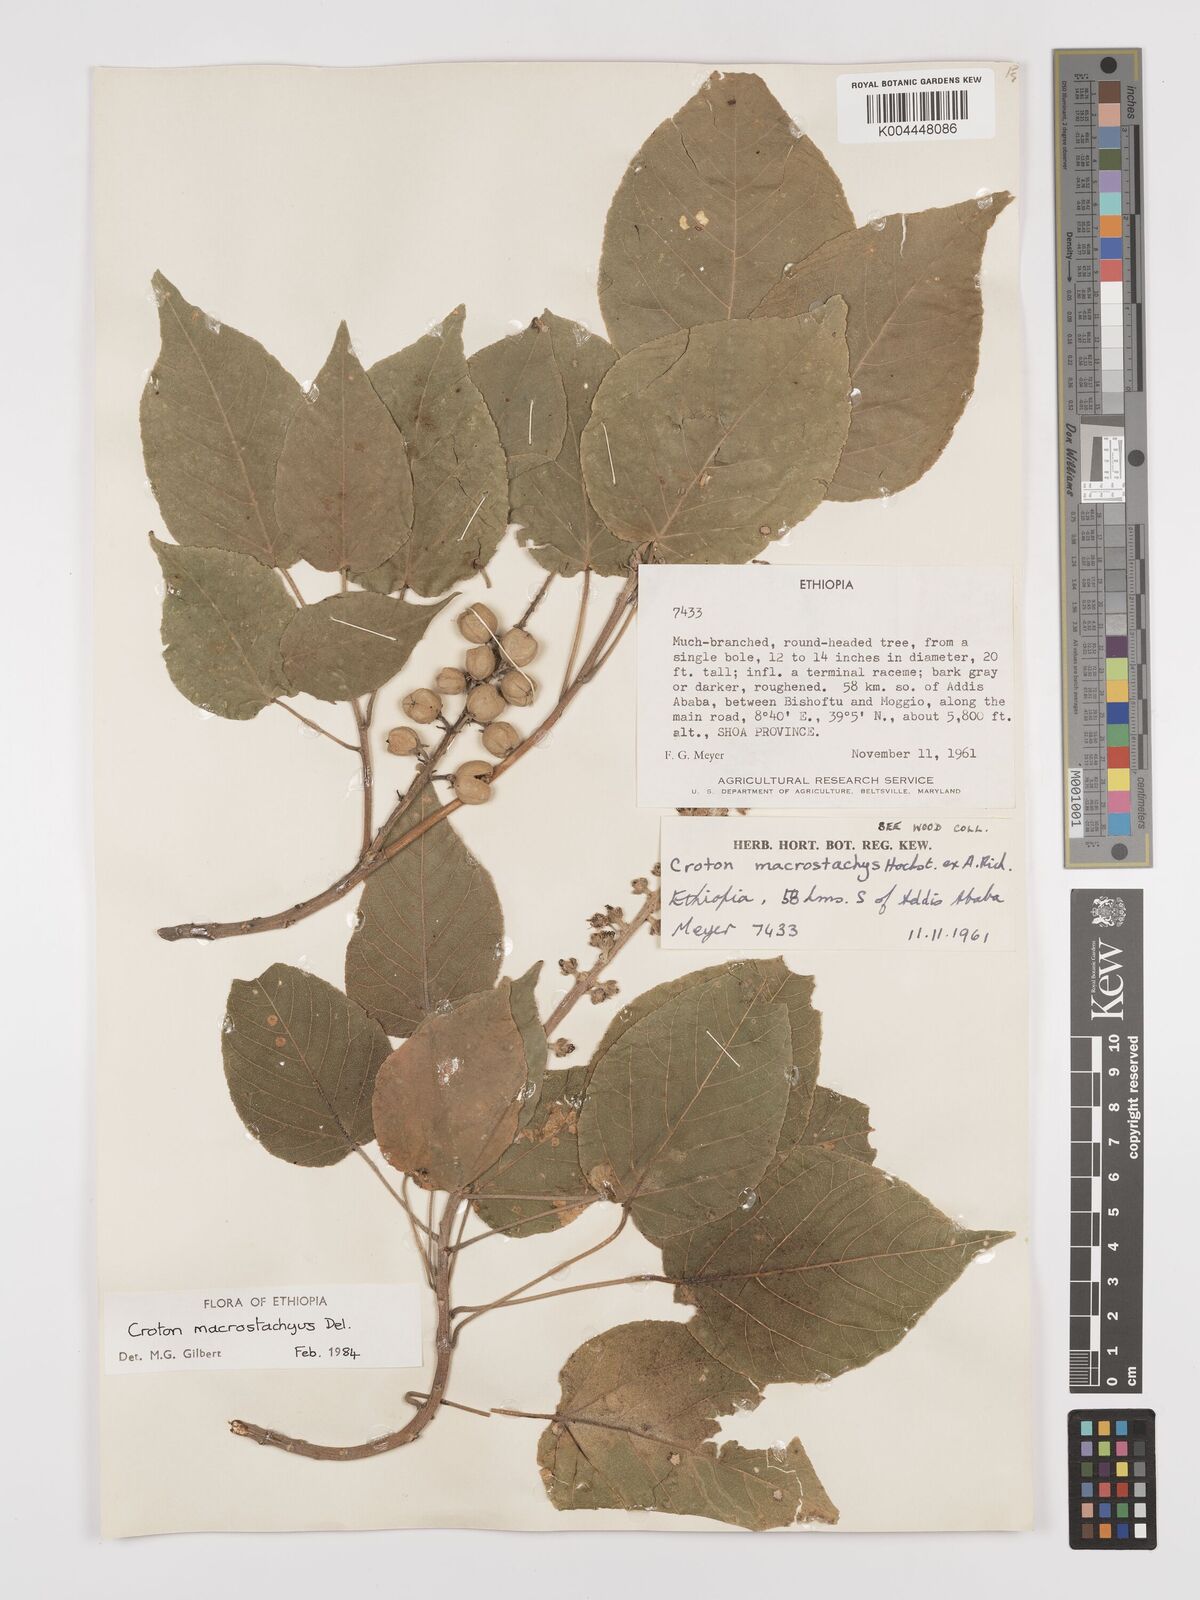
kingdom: Plantae
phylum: Tracheophyta
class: Magnoliopsida
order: Malpighiales
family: Euphorbiaceae
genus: Croton
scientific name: Croton macrostachyus
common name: Mutundu
